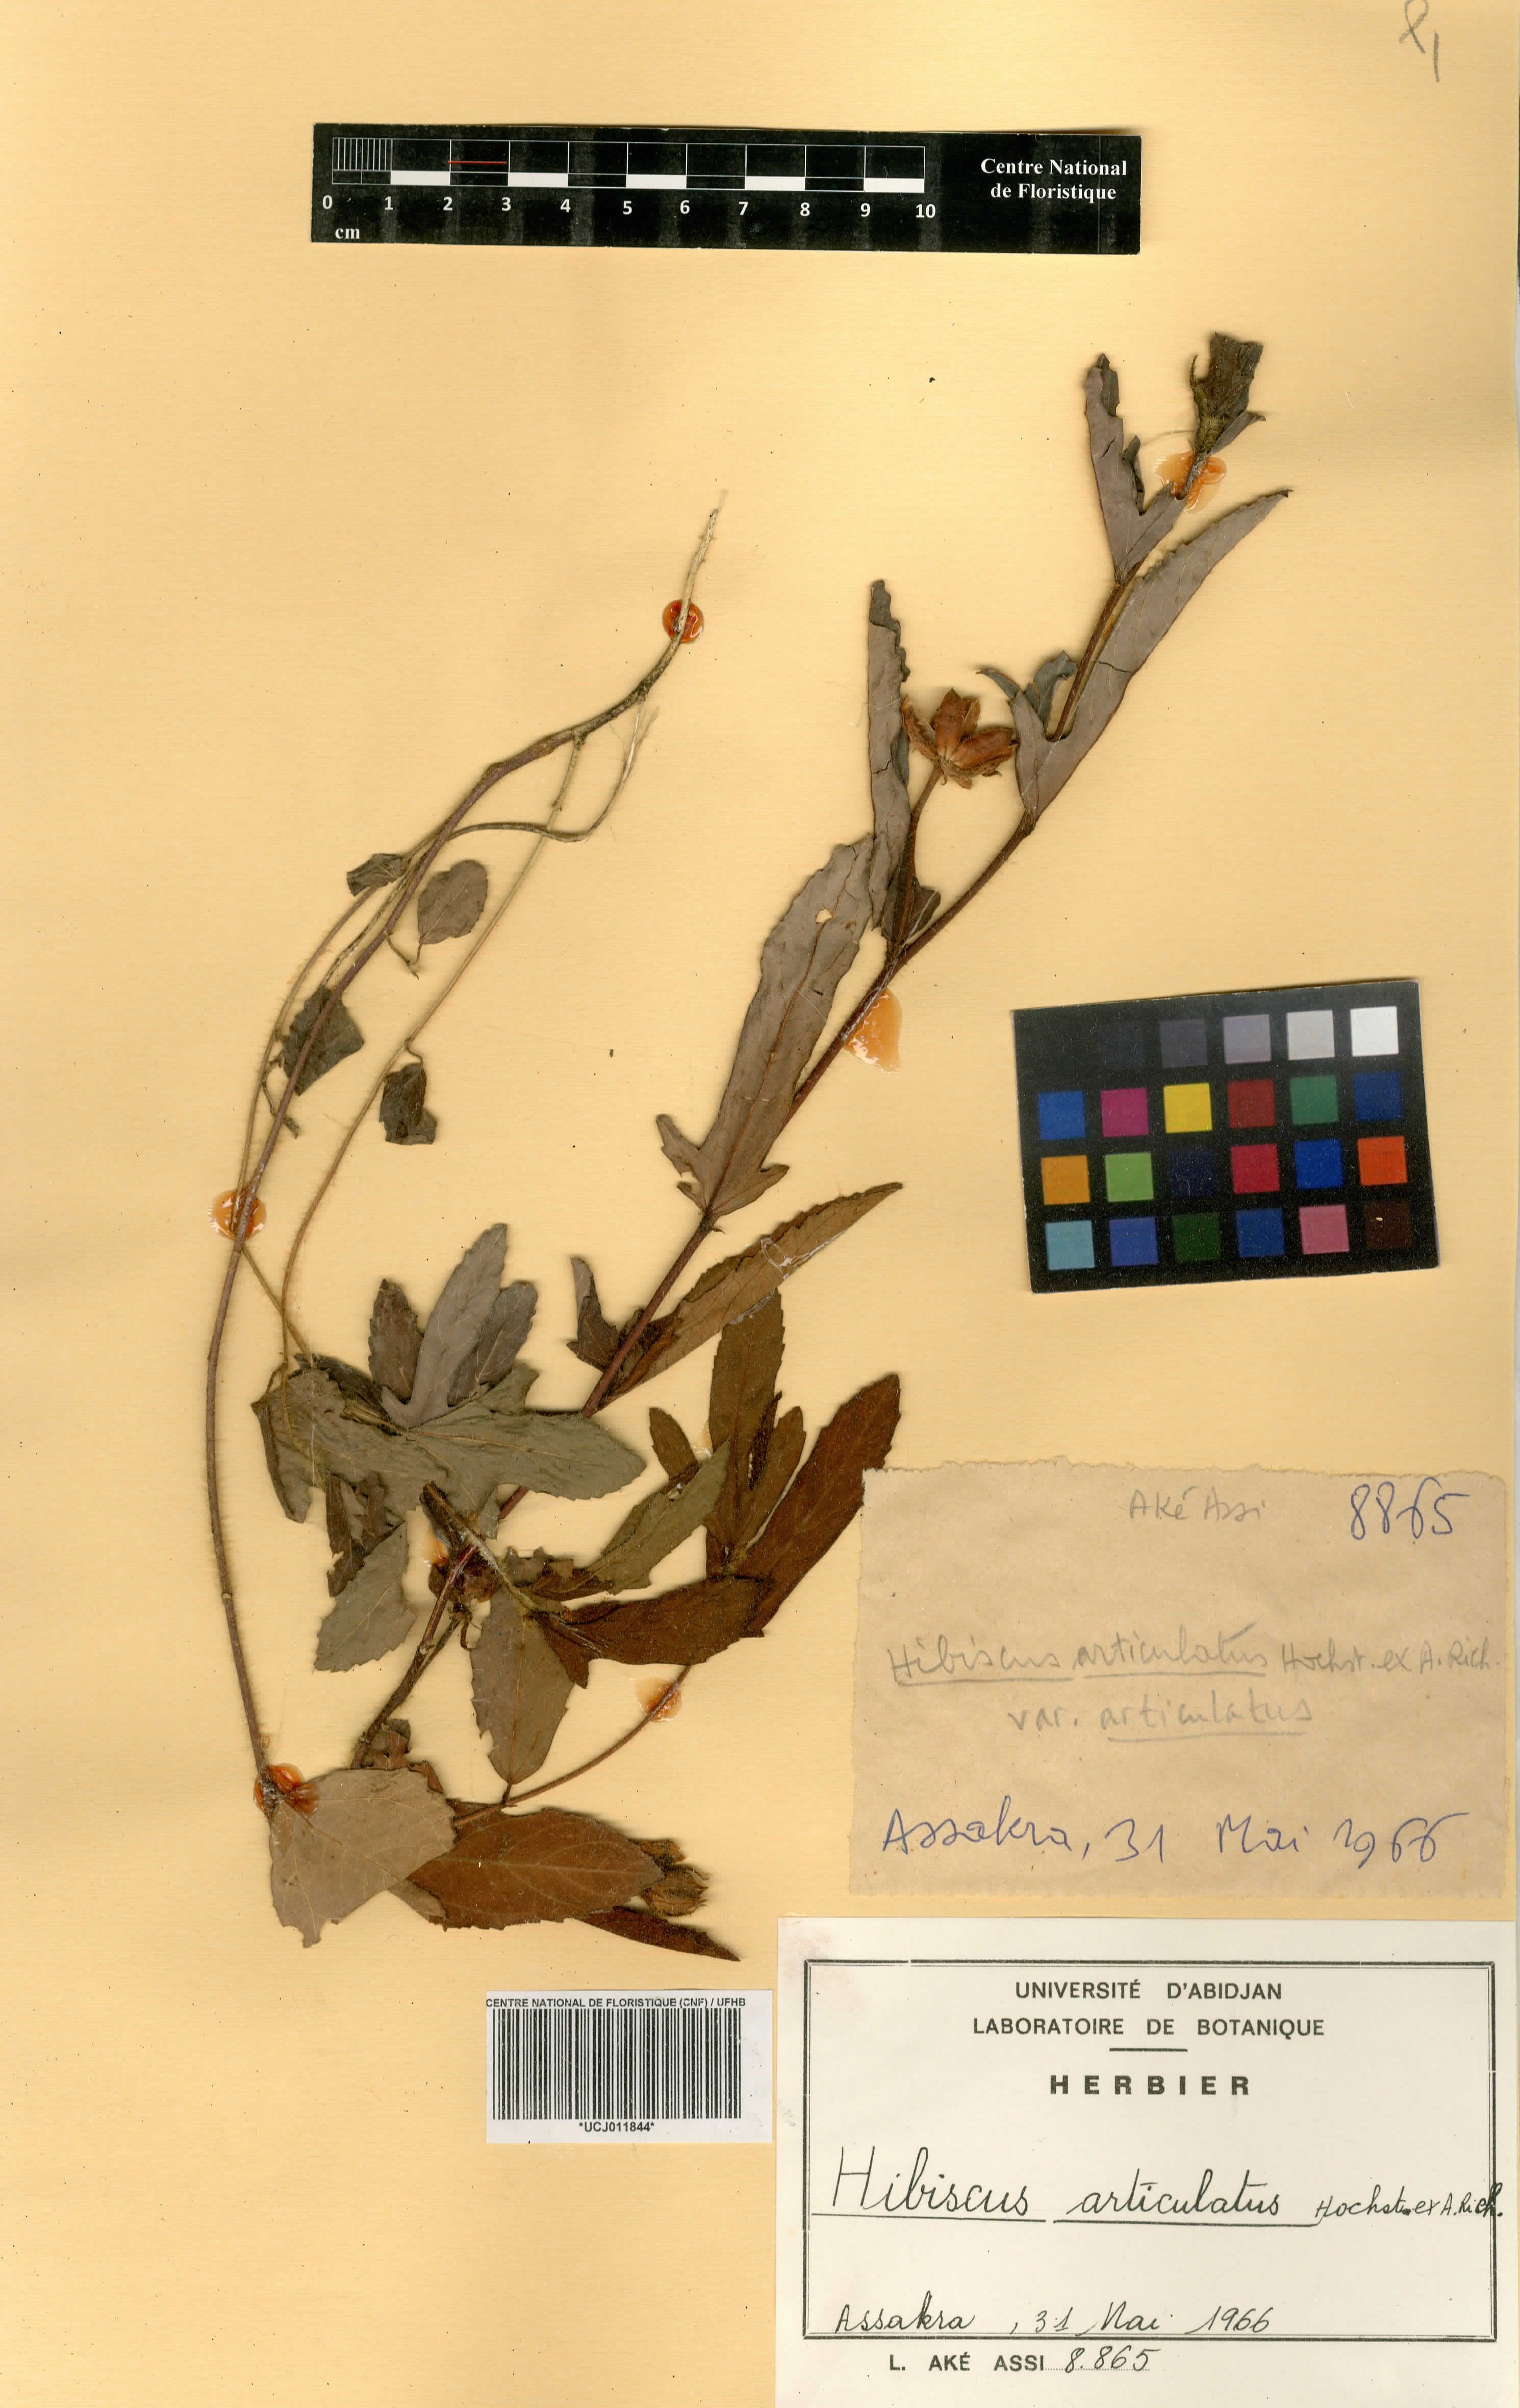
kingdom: Plantae
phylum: Tracheophyta
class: Magnoliopsida
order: Malvales
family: Malvaceae
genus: Hibiscus
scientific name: Hibiscus articulatus
